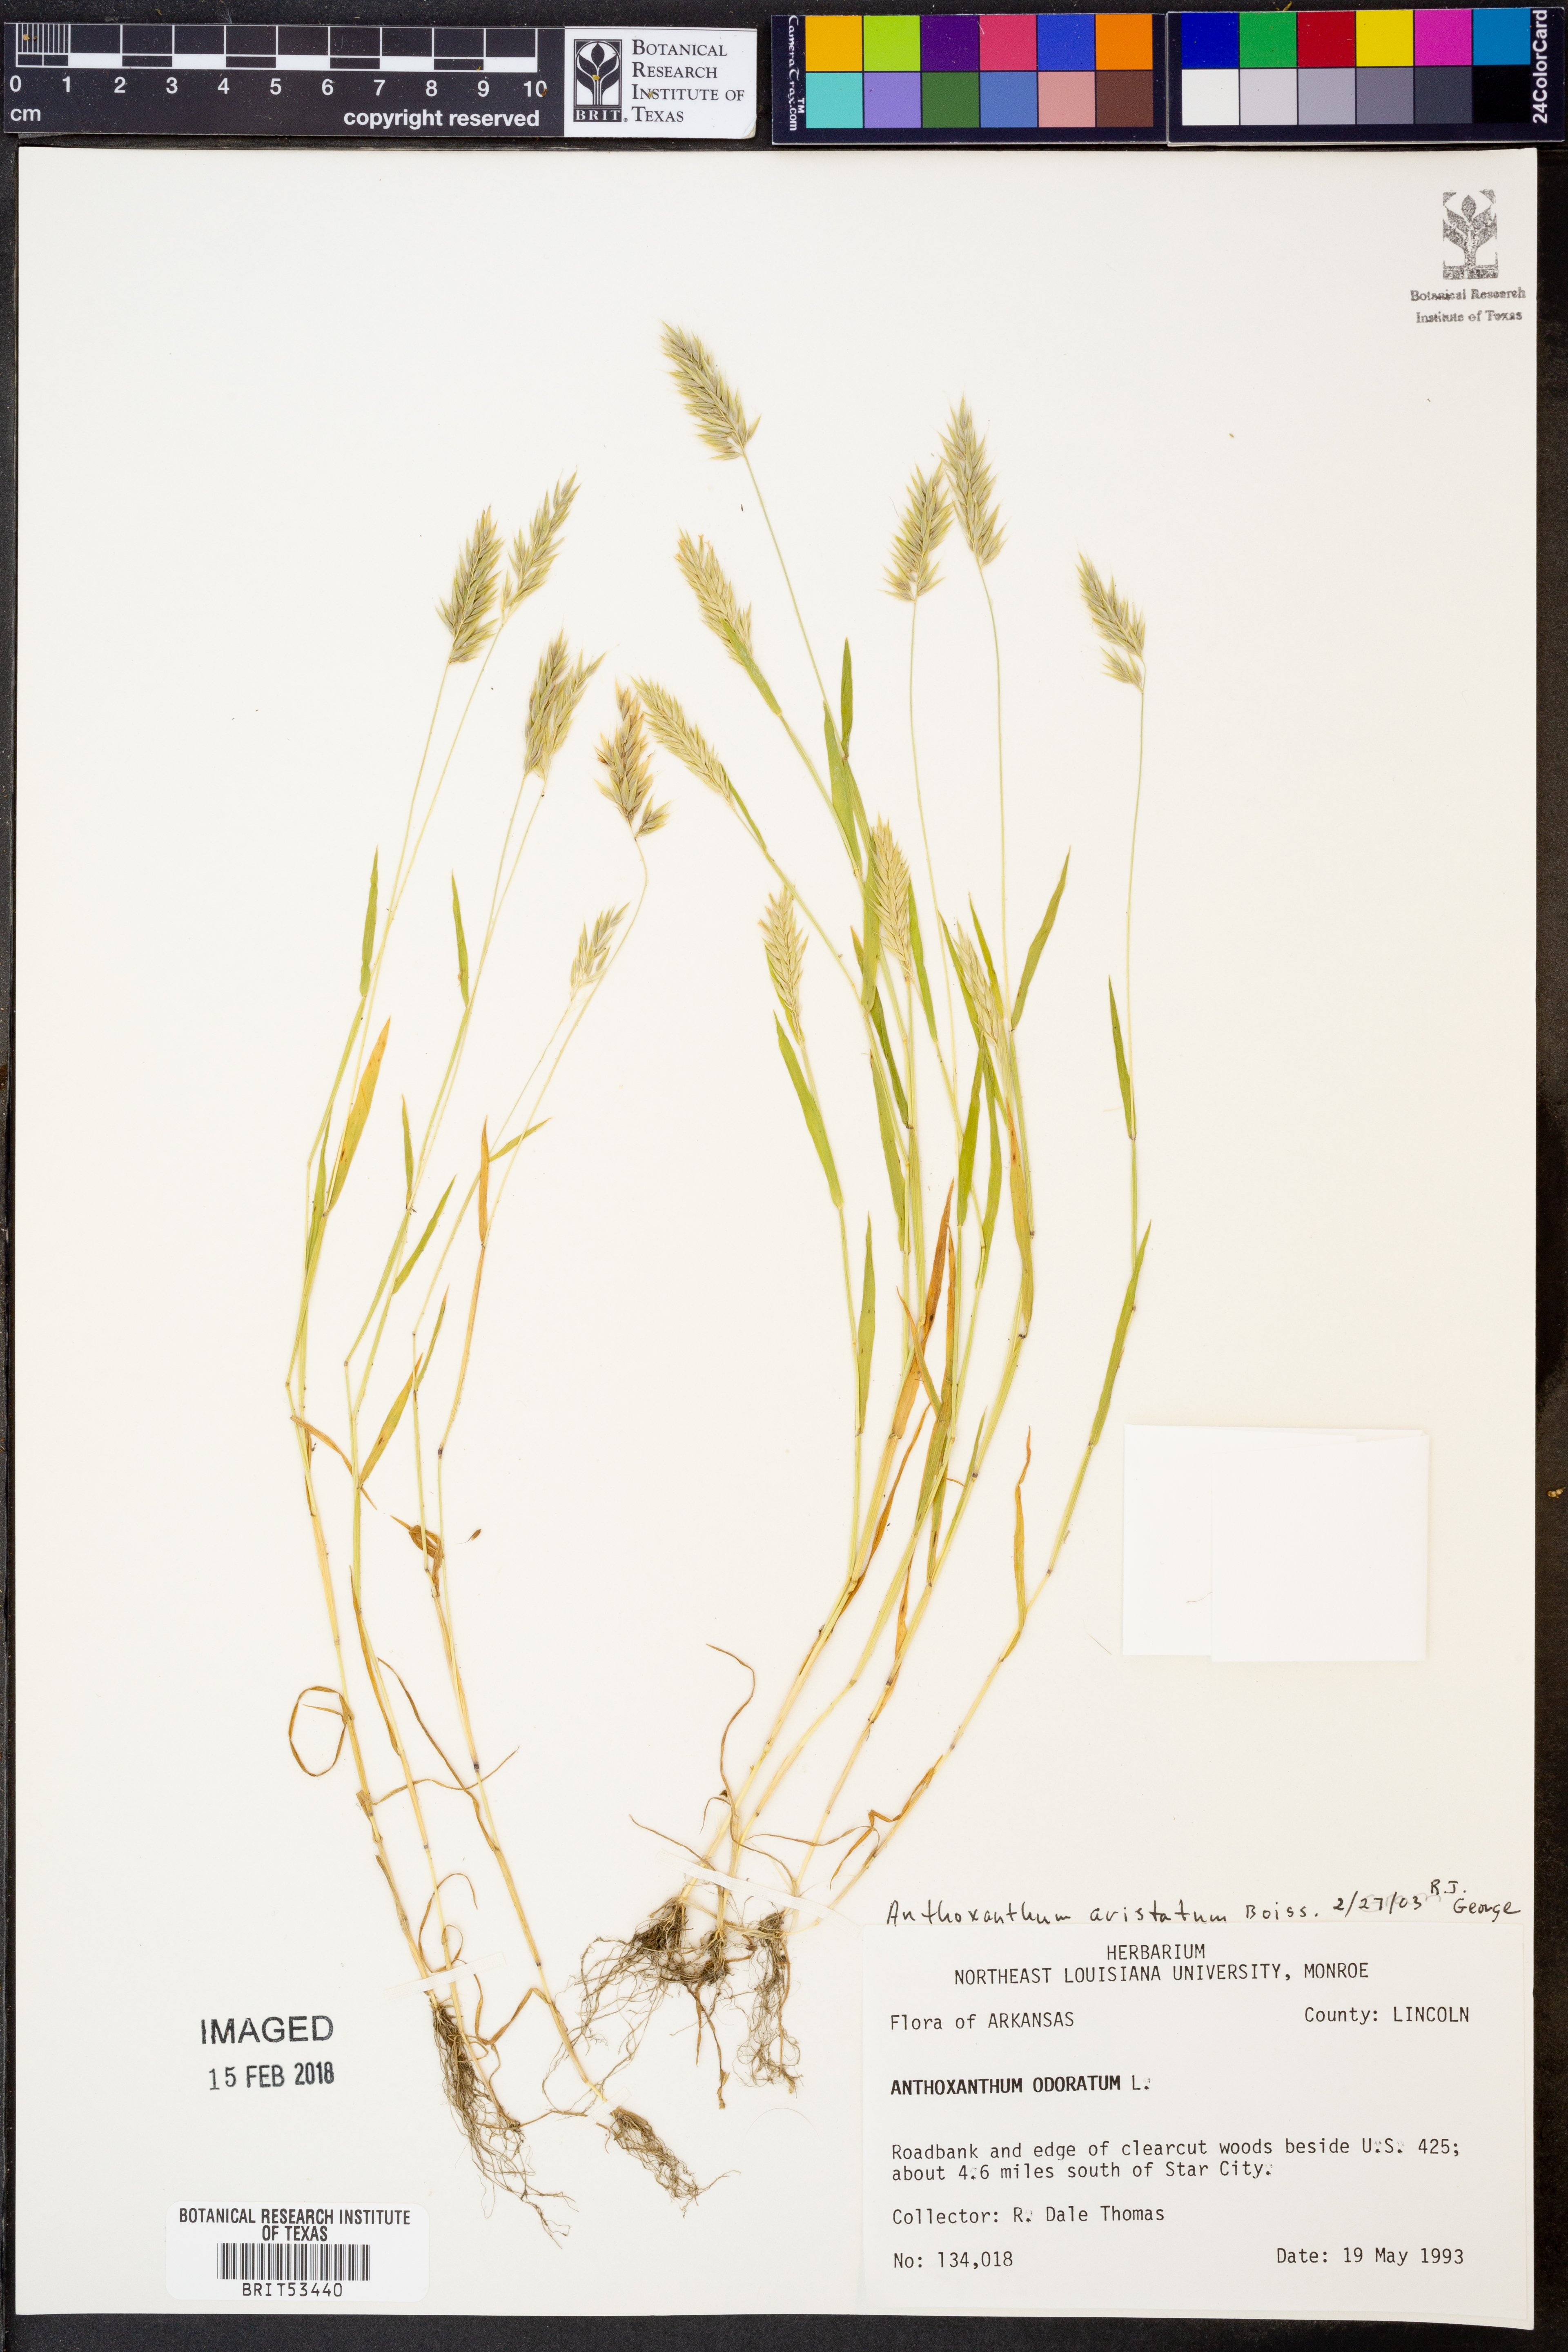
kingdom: Plantae
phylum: Tracheophyta
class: Liliopsida
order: Poales
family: Poaceae
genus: Anthoxanthum
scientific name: Anthoxanthum odoratum
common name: Sweet vernalgrass
